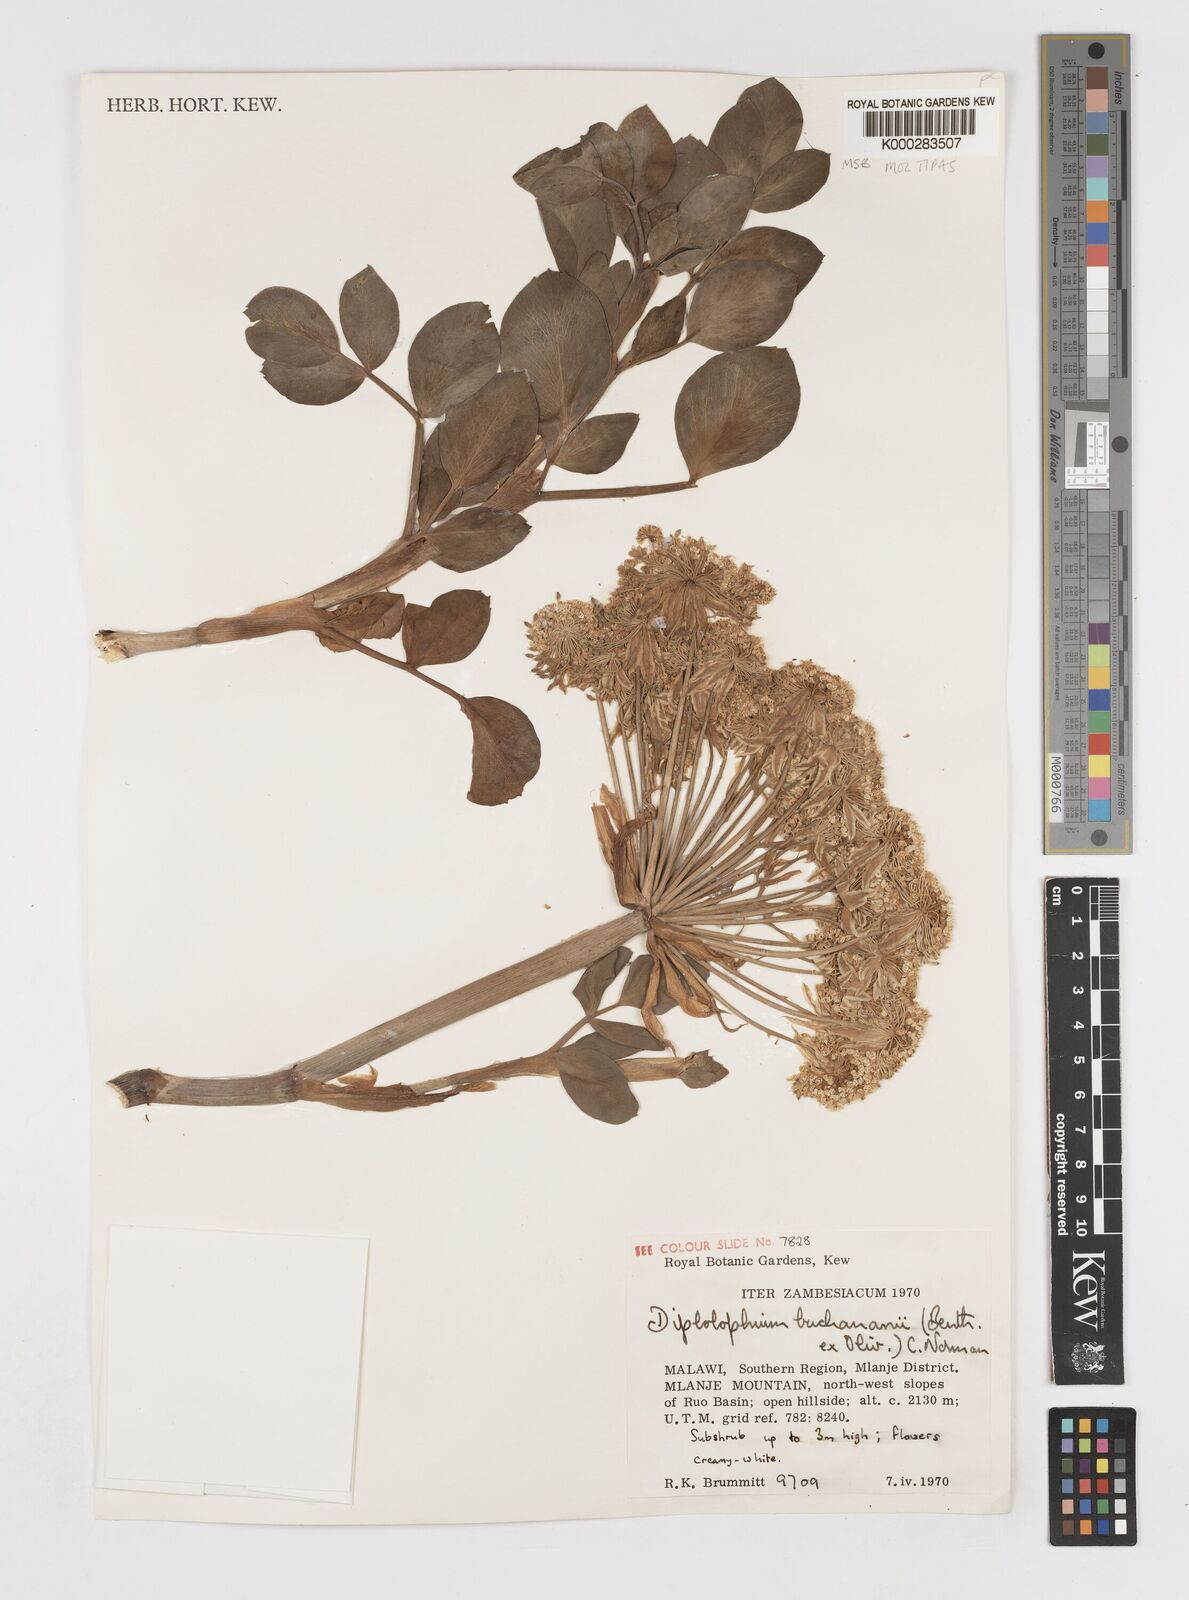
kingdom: Plantae
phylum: Tracheophyta
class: Magnoliopsida
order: Apiales
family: Apiaceae
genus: Diplolophium
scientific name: Diplolophium buchananii
